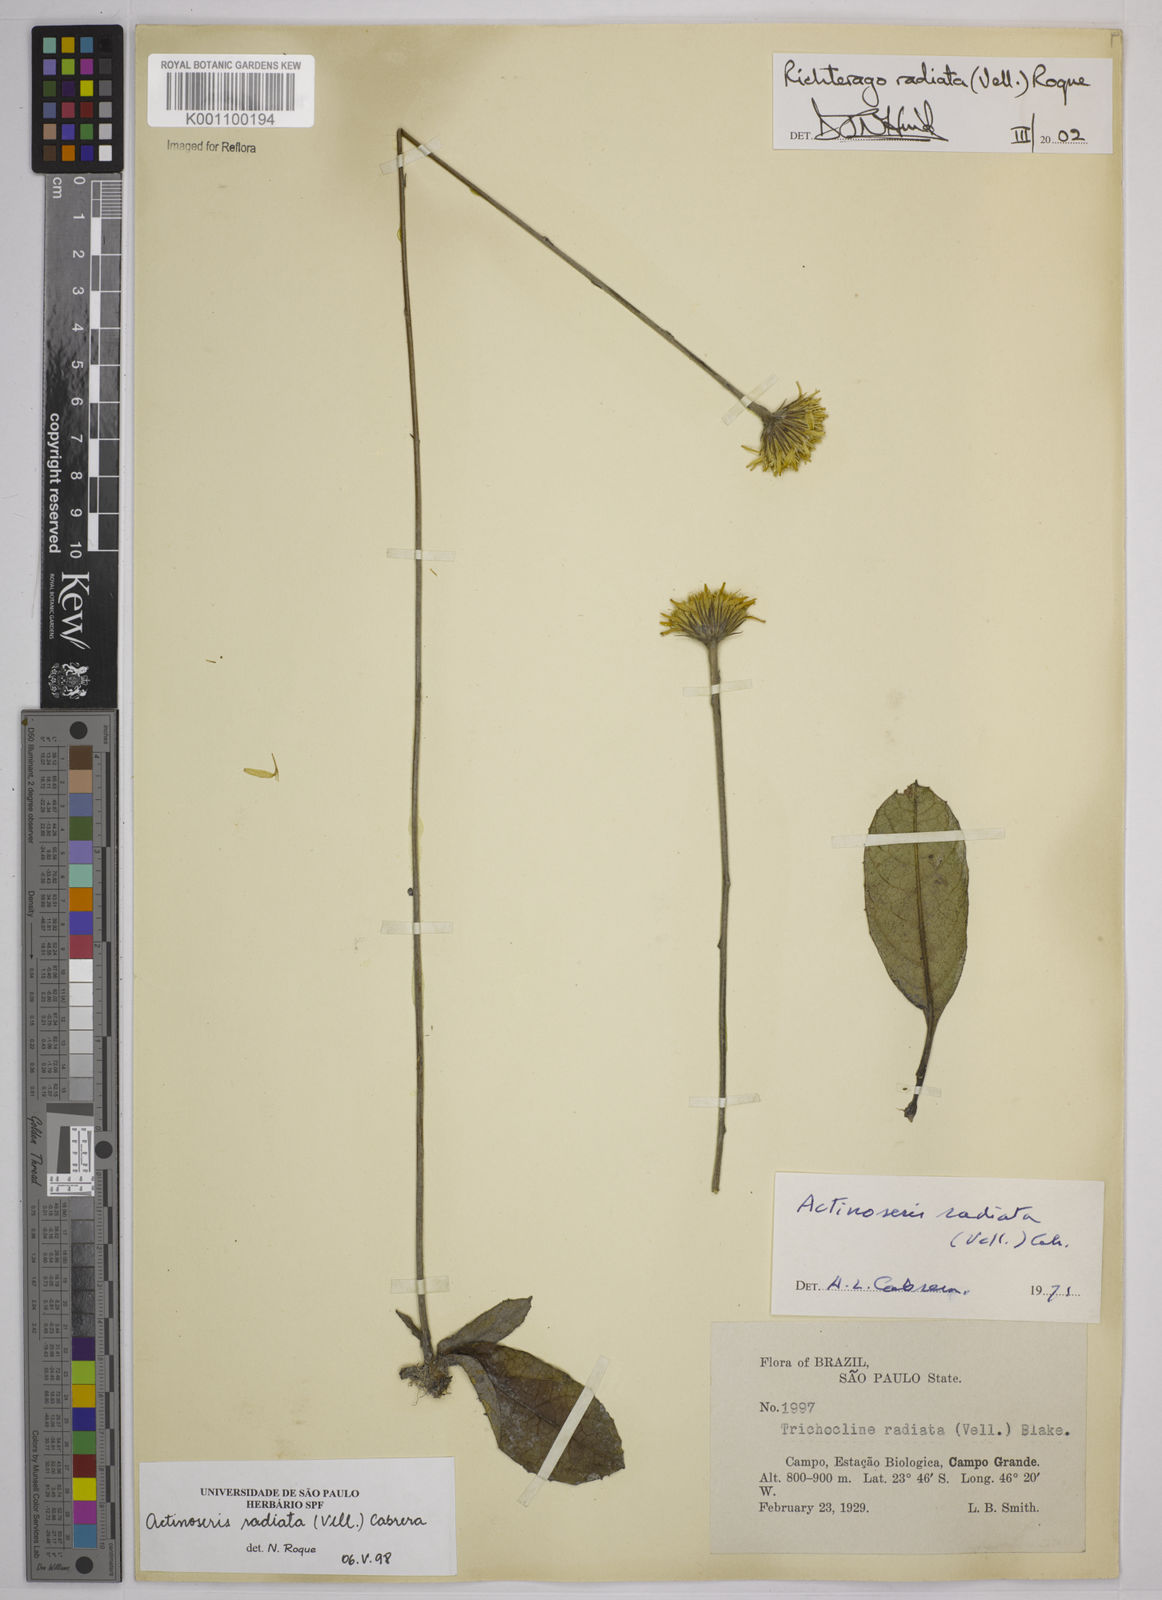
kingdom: Plantae
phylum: Tracheophyta
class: Magnoliopsida
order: Asterales
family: Asteraceae
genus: Richterago
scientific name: Richterago radiata
